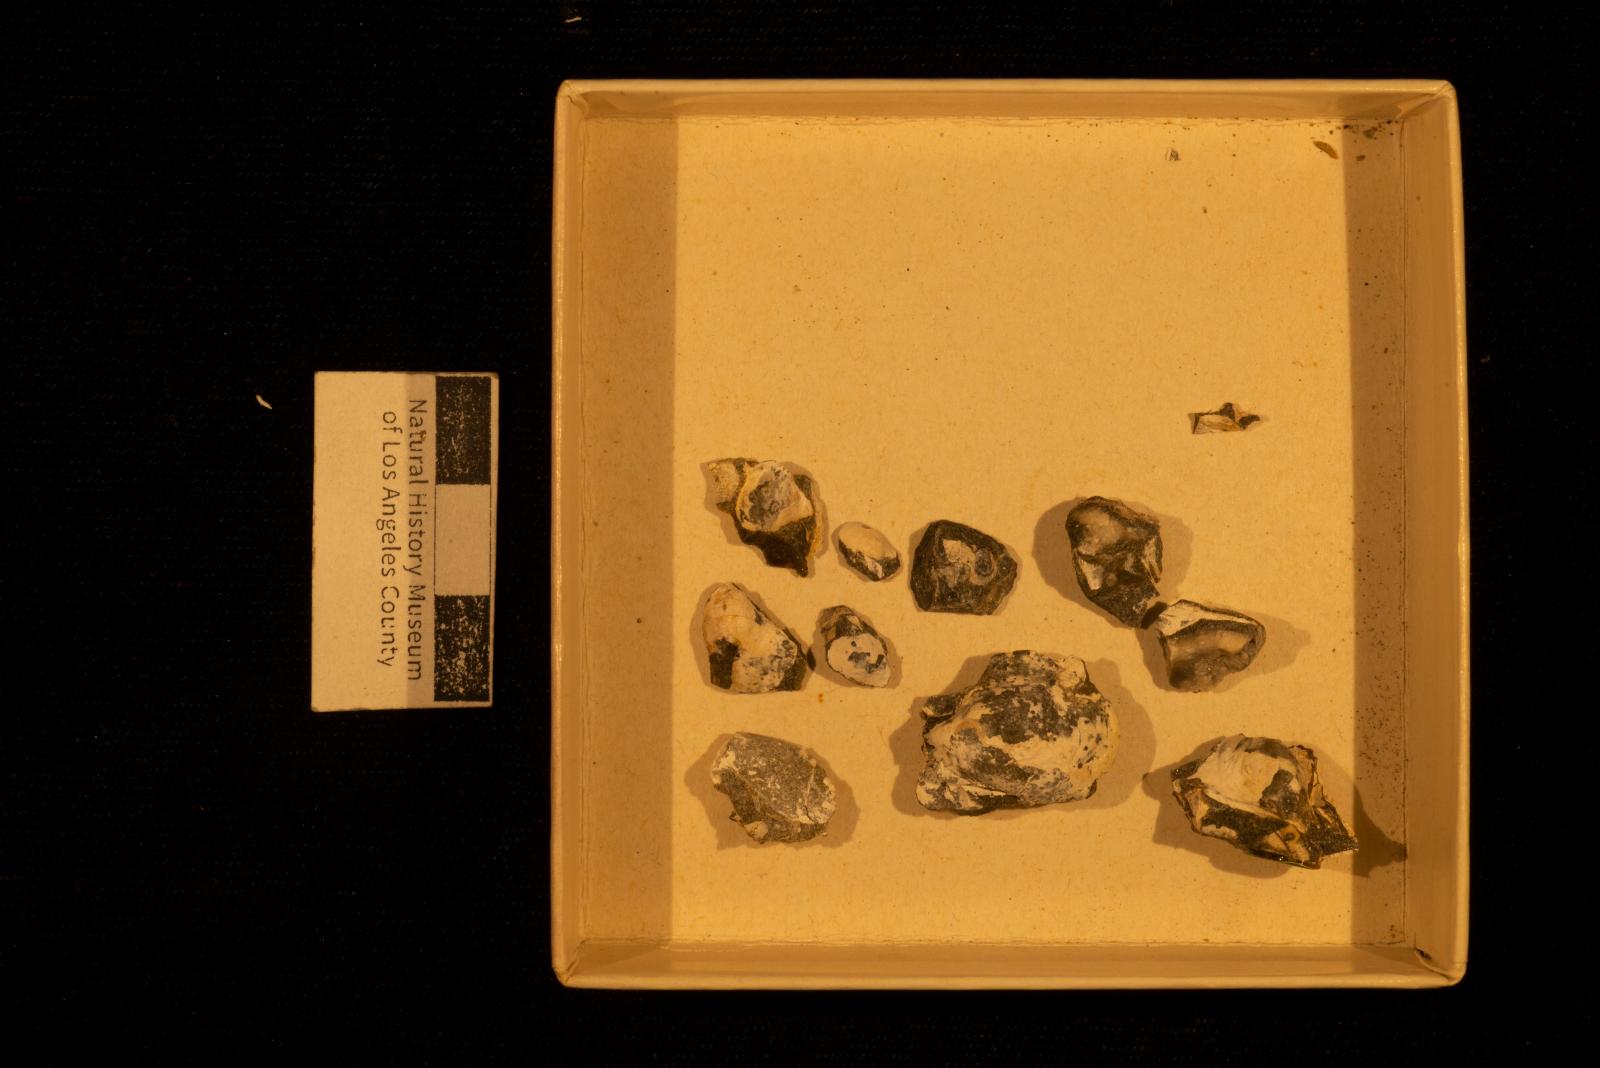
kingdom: Animalia
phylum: Mollusca
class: Bivalvia
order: Ostreida
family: Pteriidae
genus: Pteria
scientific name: Pteria pellucida
